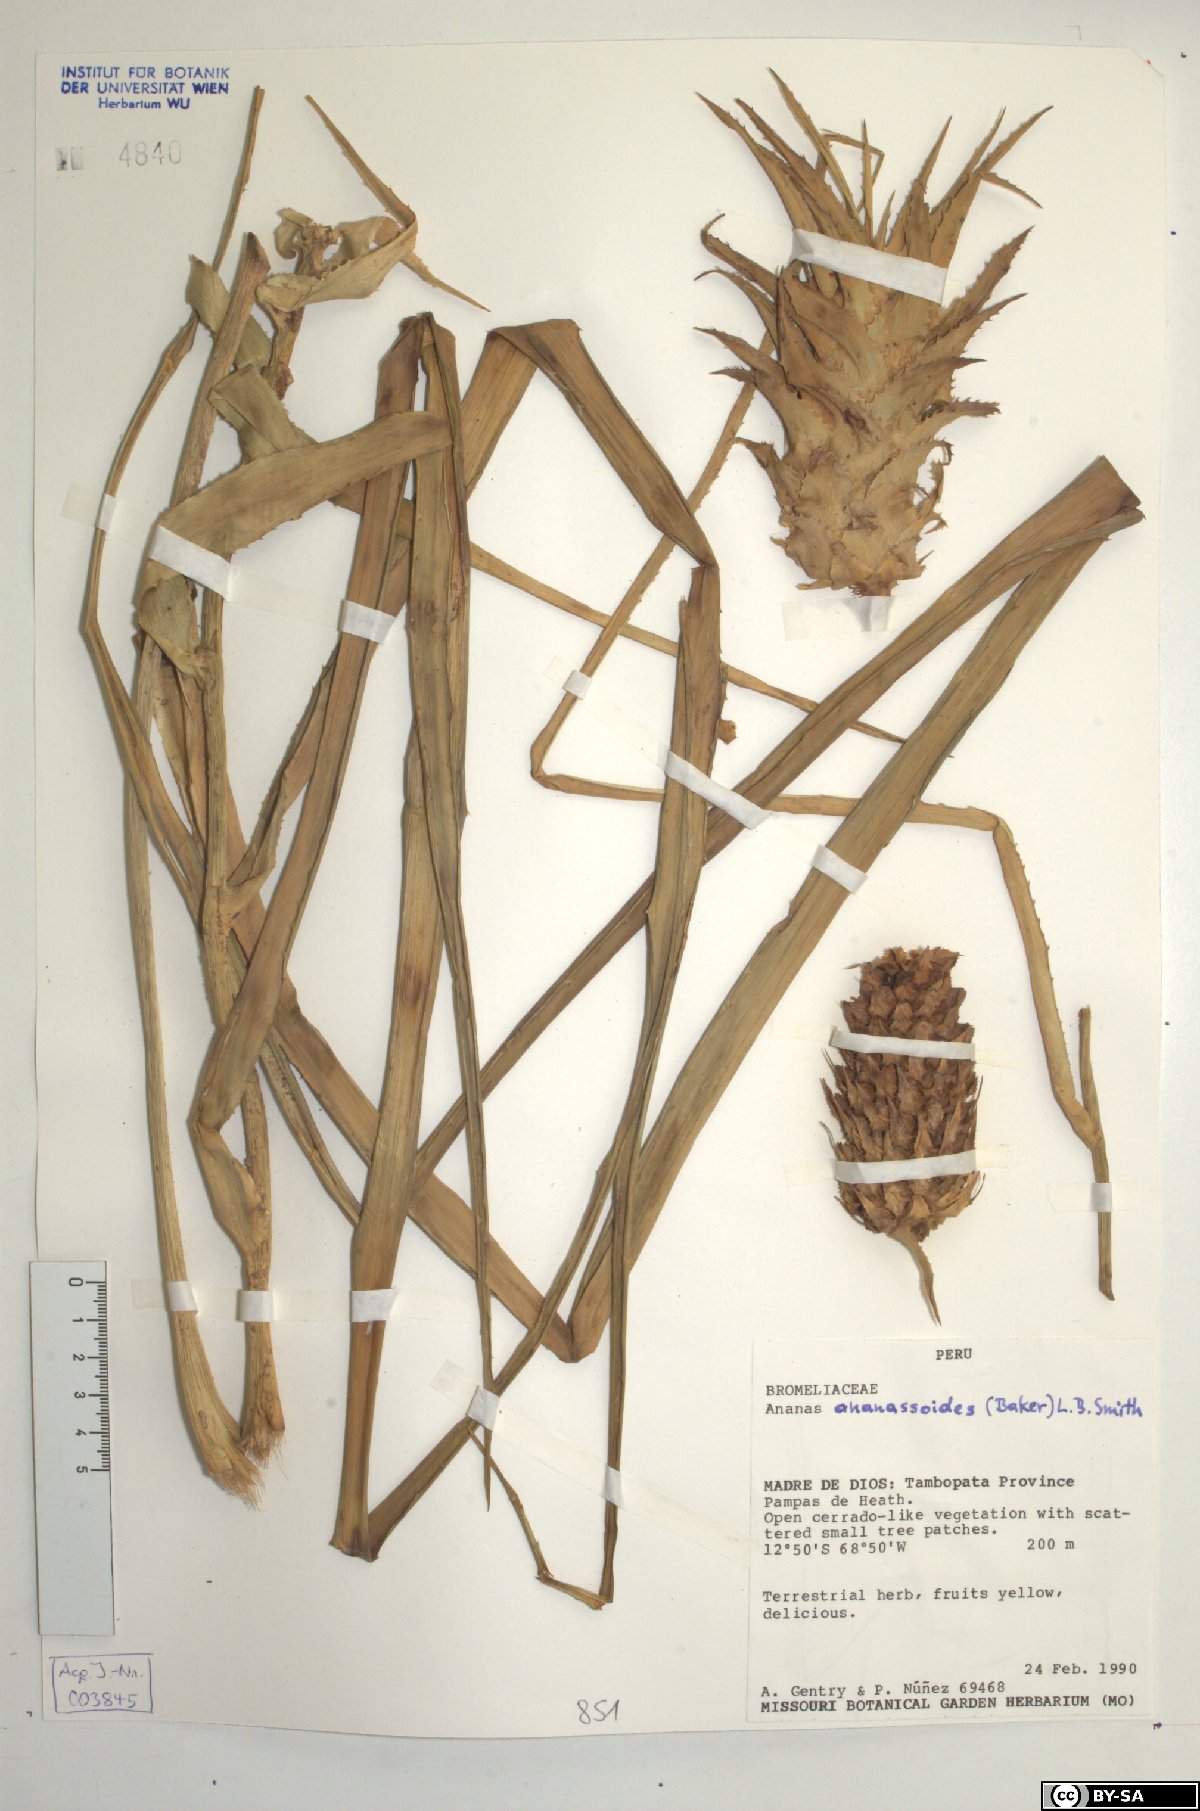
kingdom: Plantae
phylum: Tracheophyta
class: Liliopsida
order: Poales
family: Bromeliaceae
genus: Ananas
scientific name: Ananas comosus
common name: Pineapple
